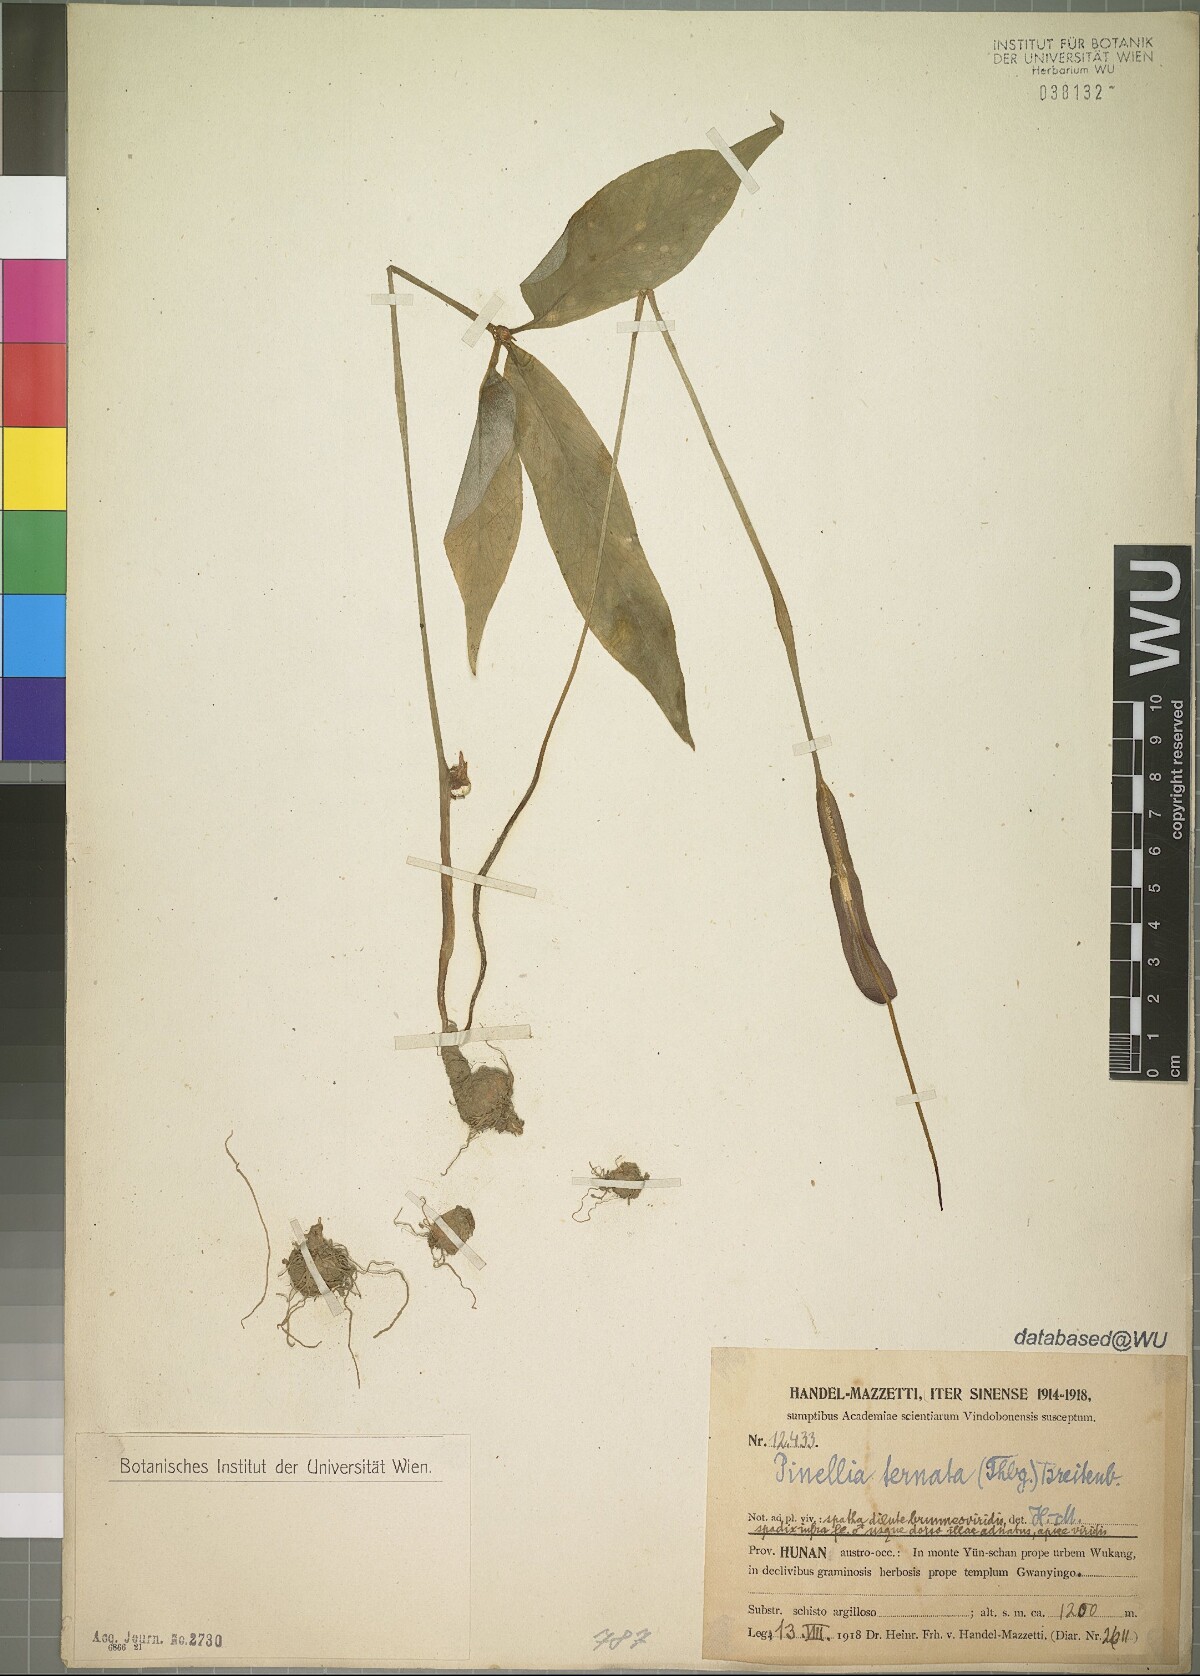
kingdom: Plantae
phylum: Tracheophyta
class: Liliopsida
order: Alismatales
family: Araceae
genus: Pinellia
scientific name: Pinellia ternata
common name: Pinellia
